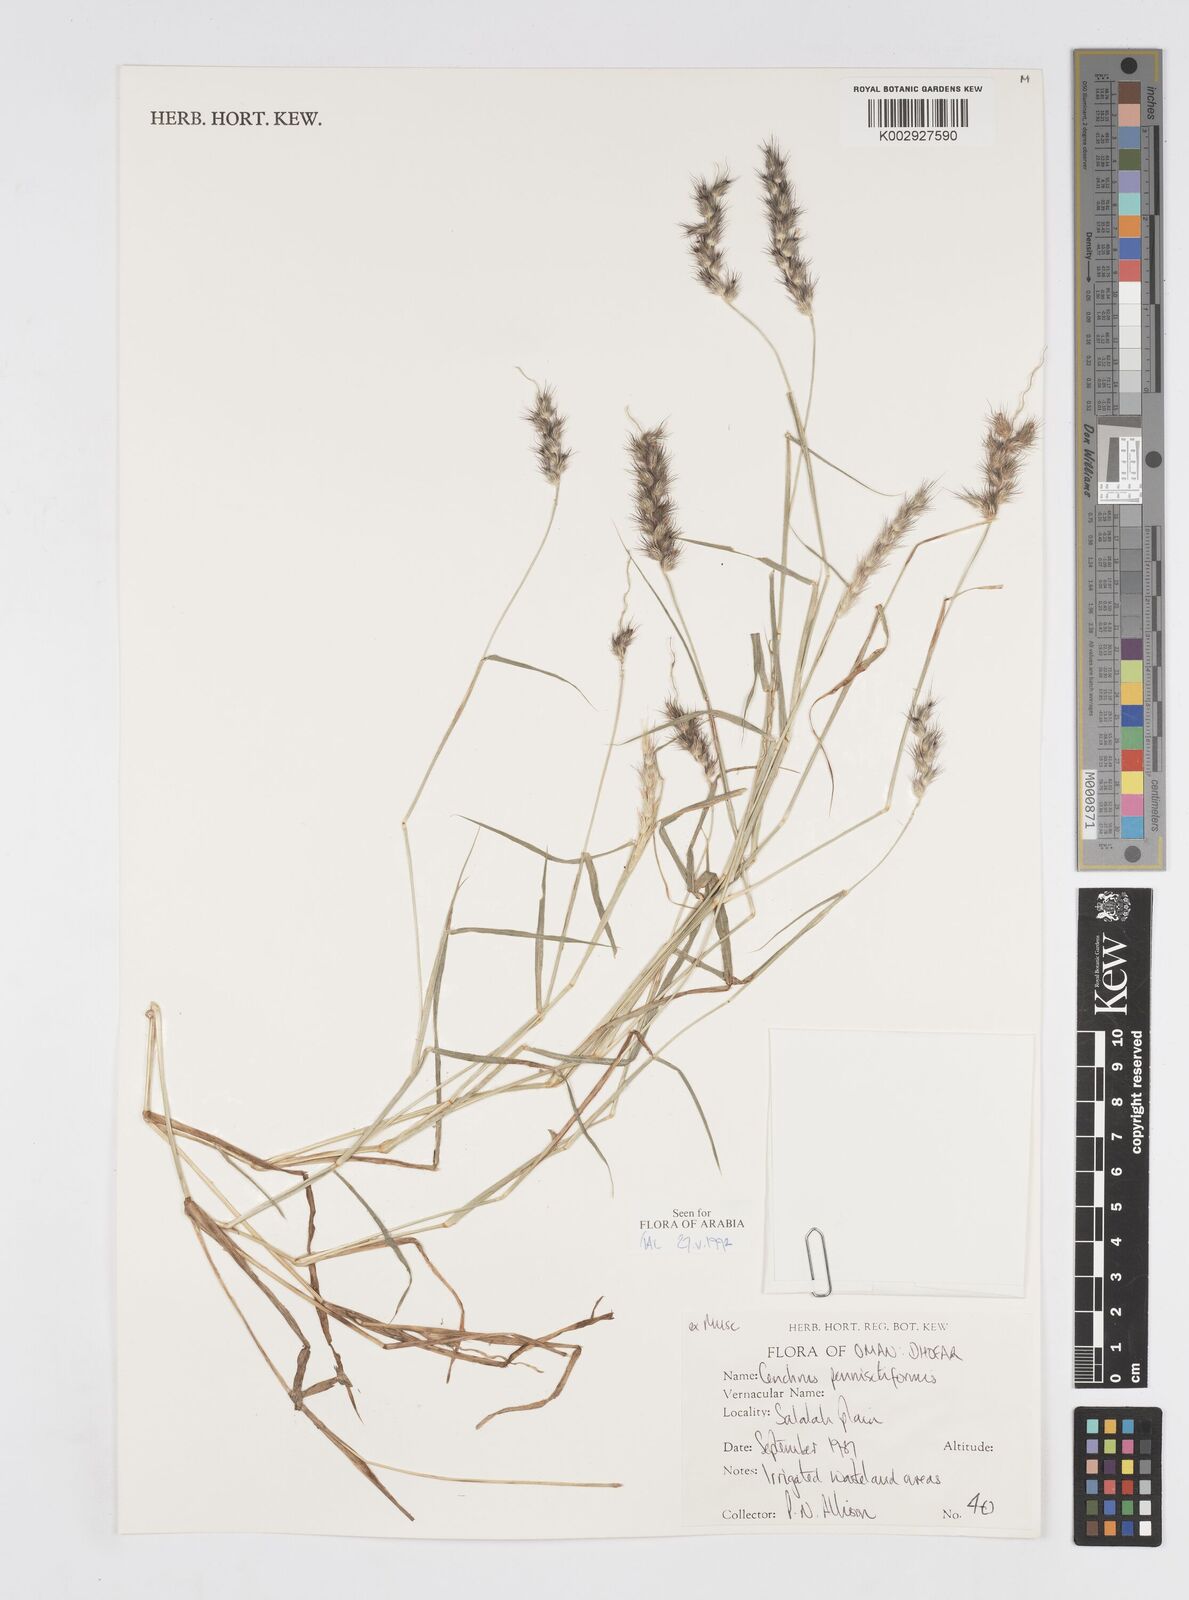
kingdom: Plantae
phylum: Tracheophyta
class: Liliopsida
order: Poales
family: Poaceae
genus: Cenchrus
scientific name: Cenchrus pennisetiformis
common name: Cloncurry
